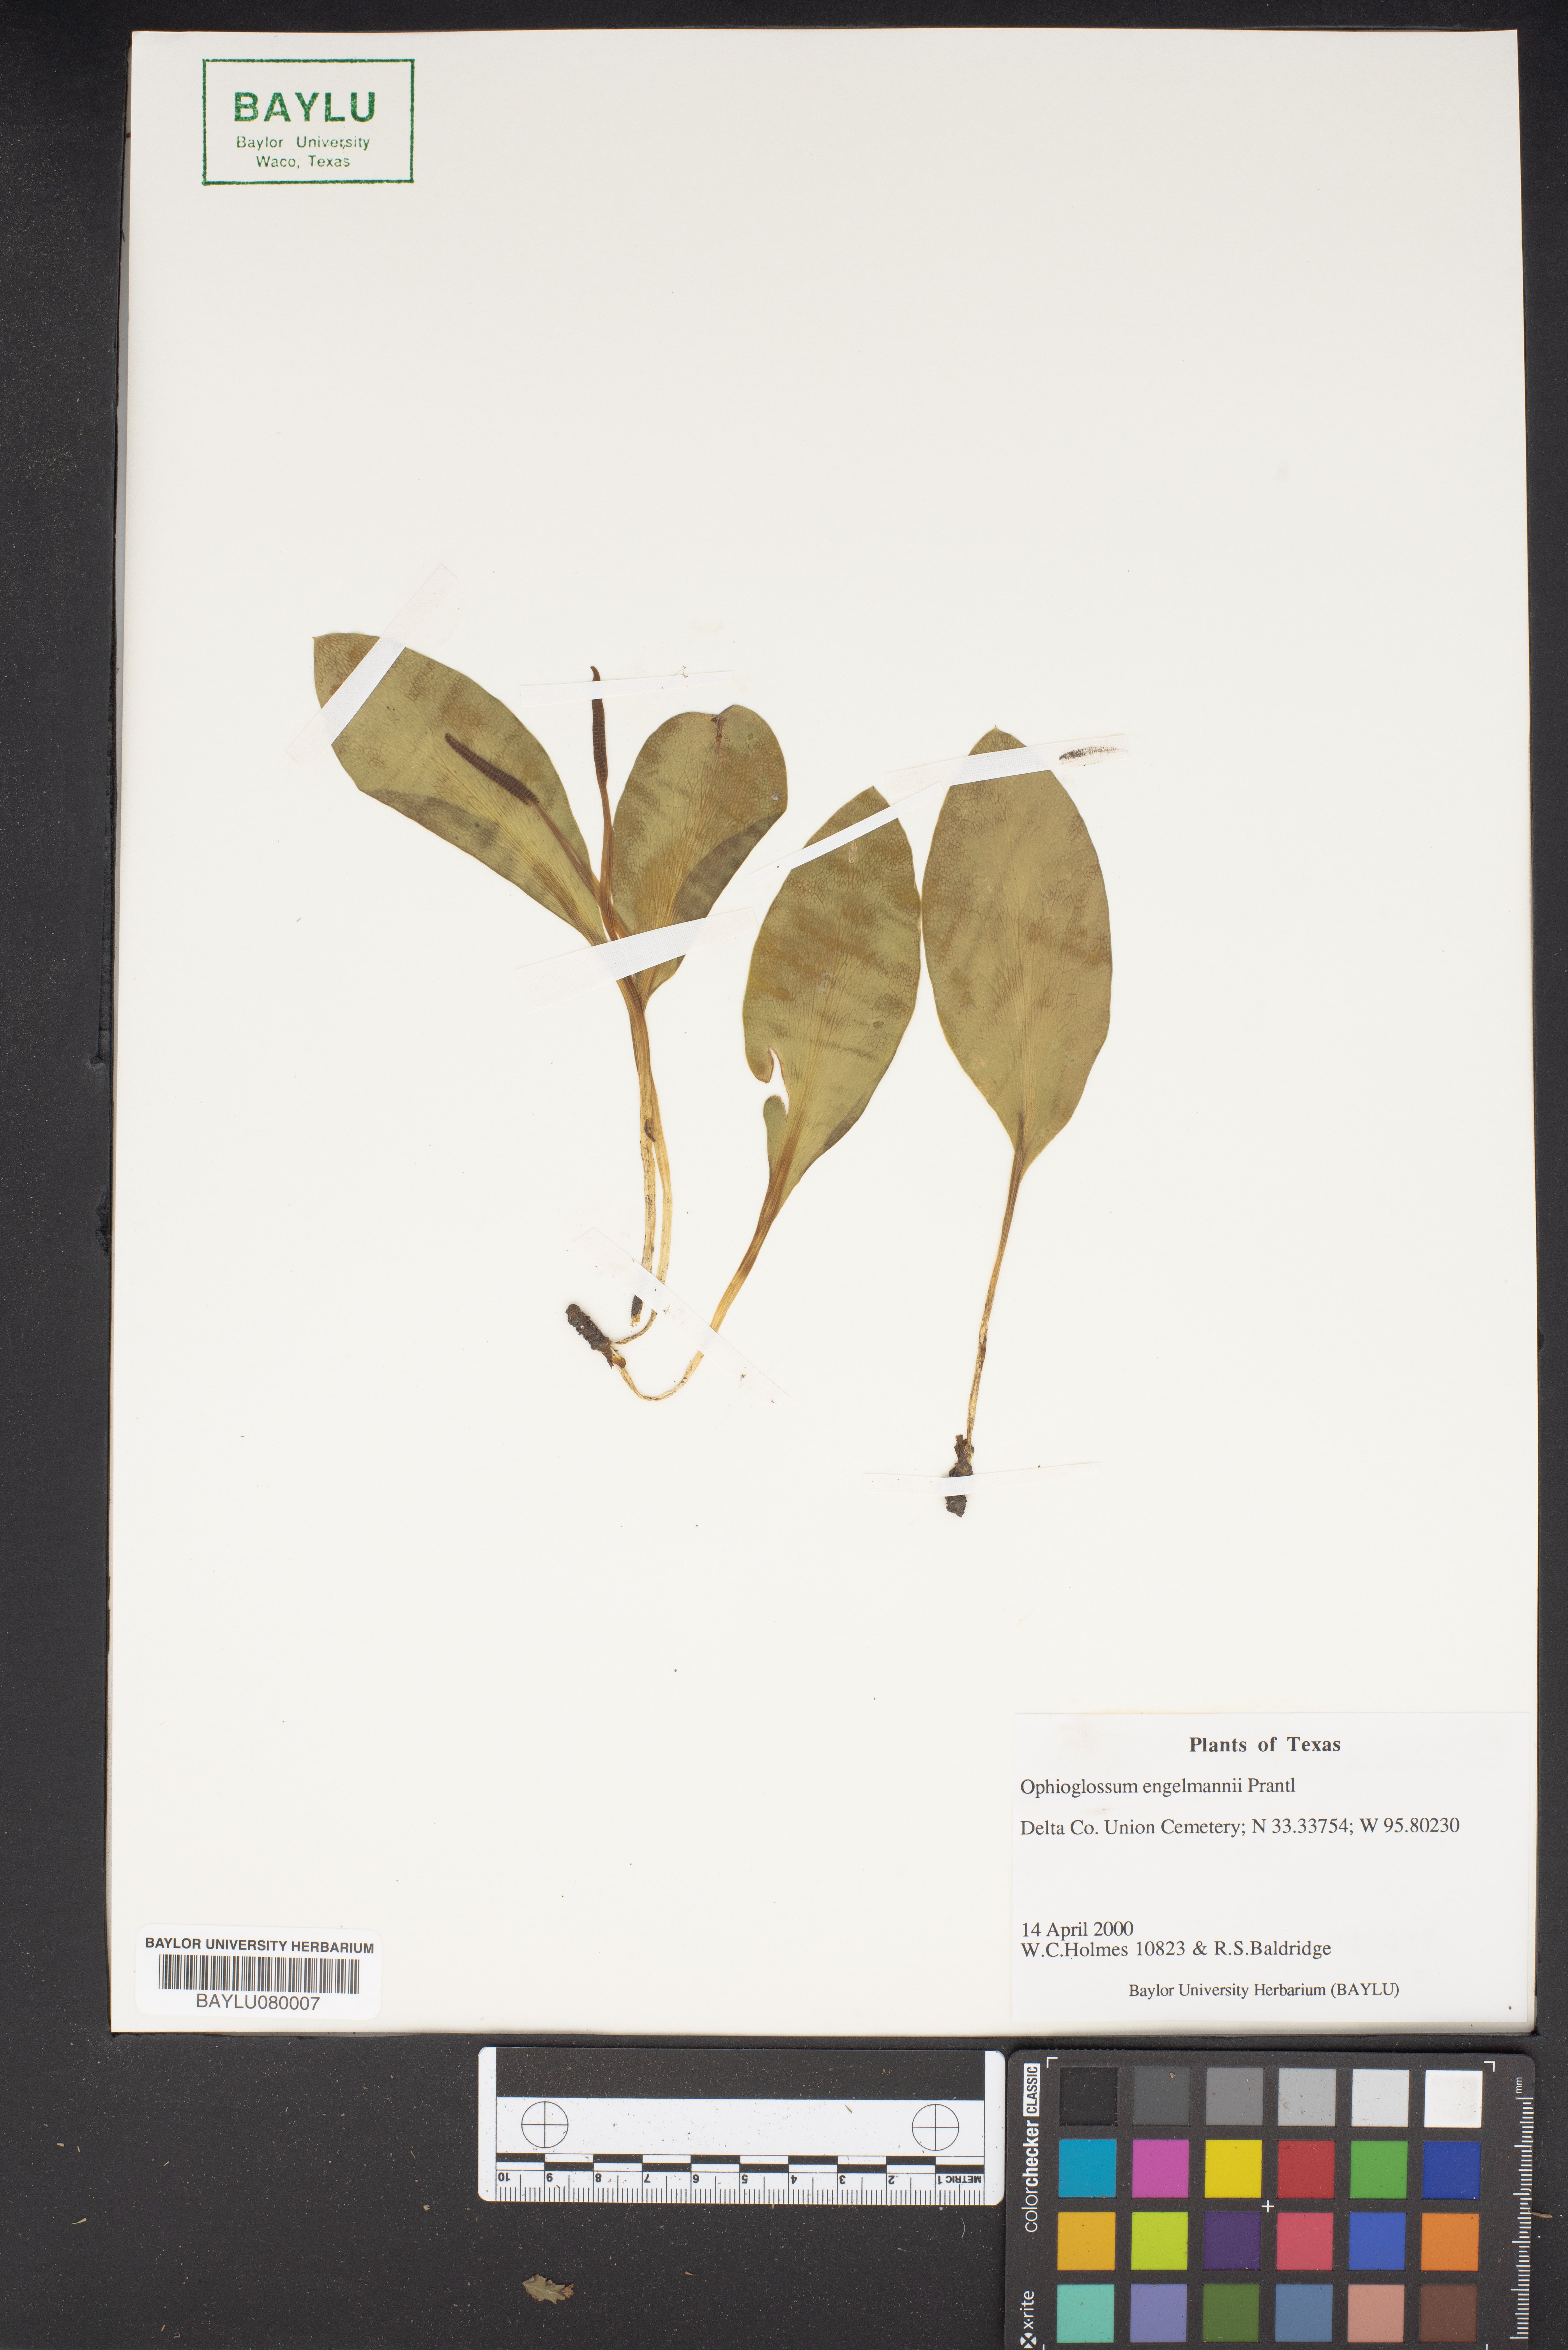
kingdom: Plantae
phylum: Tracheophyta
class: Polypodiopsida
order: Ophioglossales
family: Ophioglossaceae
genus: Ophioglossum
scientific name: Ophioglossum engelmannii
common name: Limestone adder's-tongue
